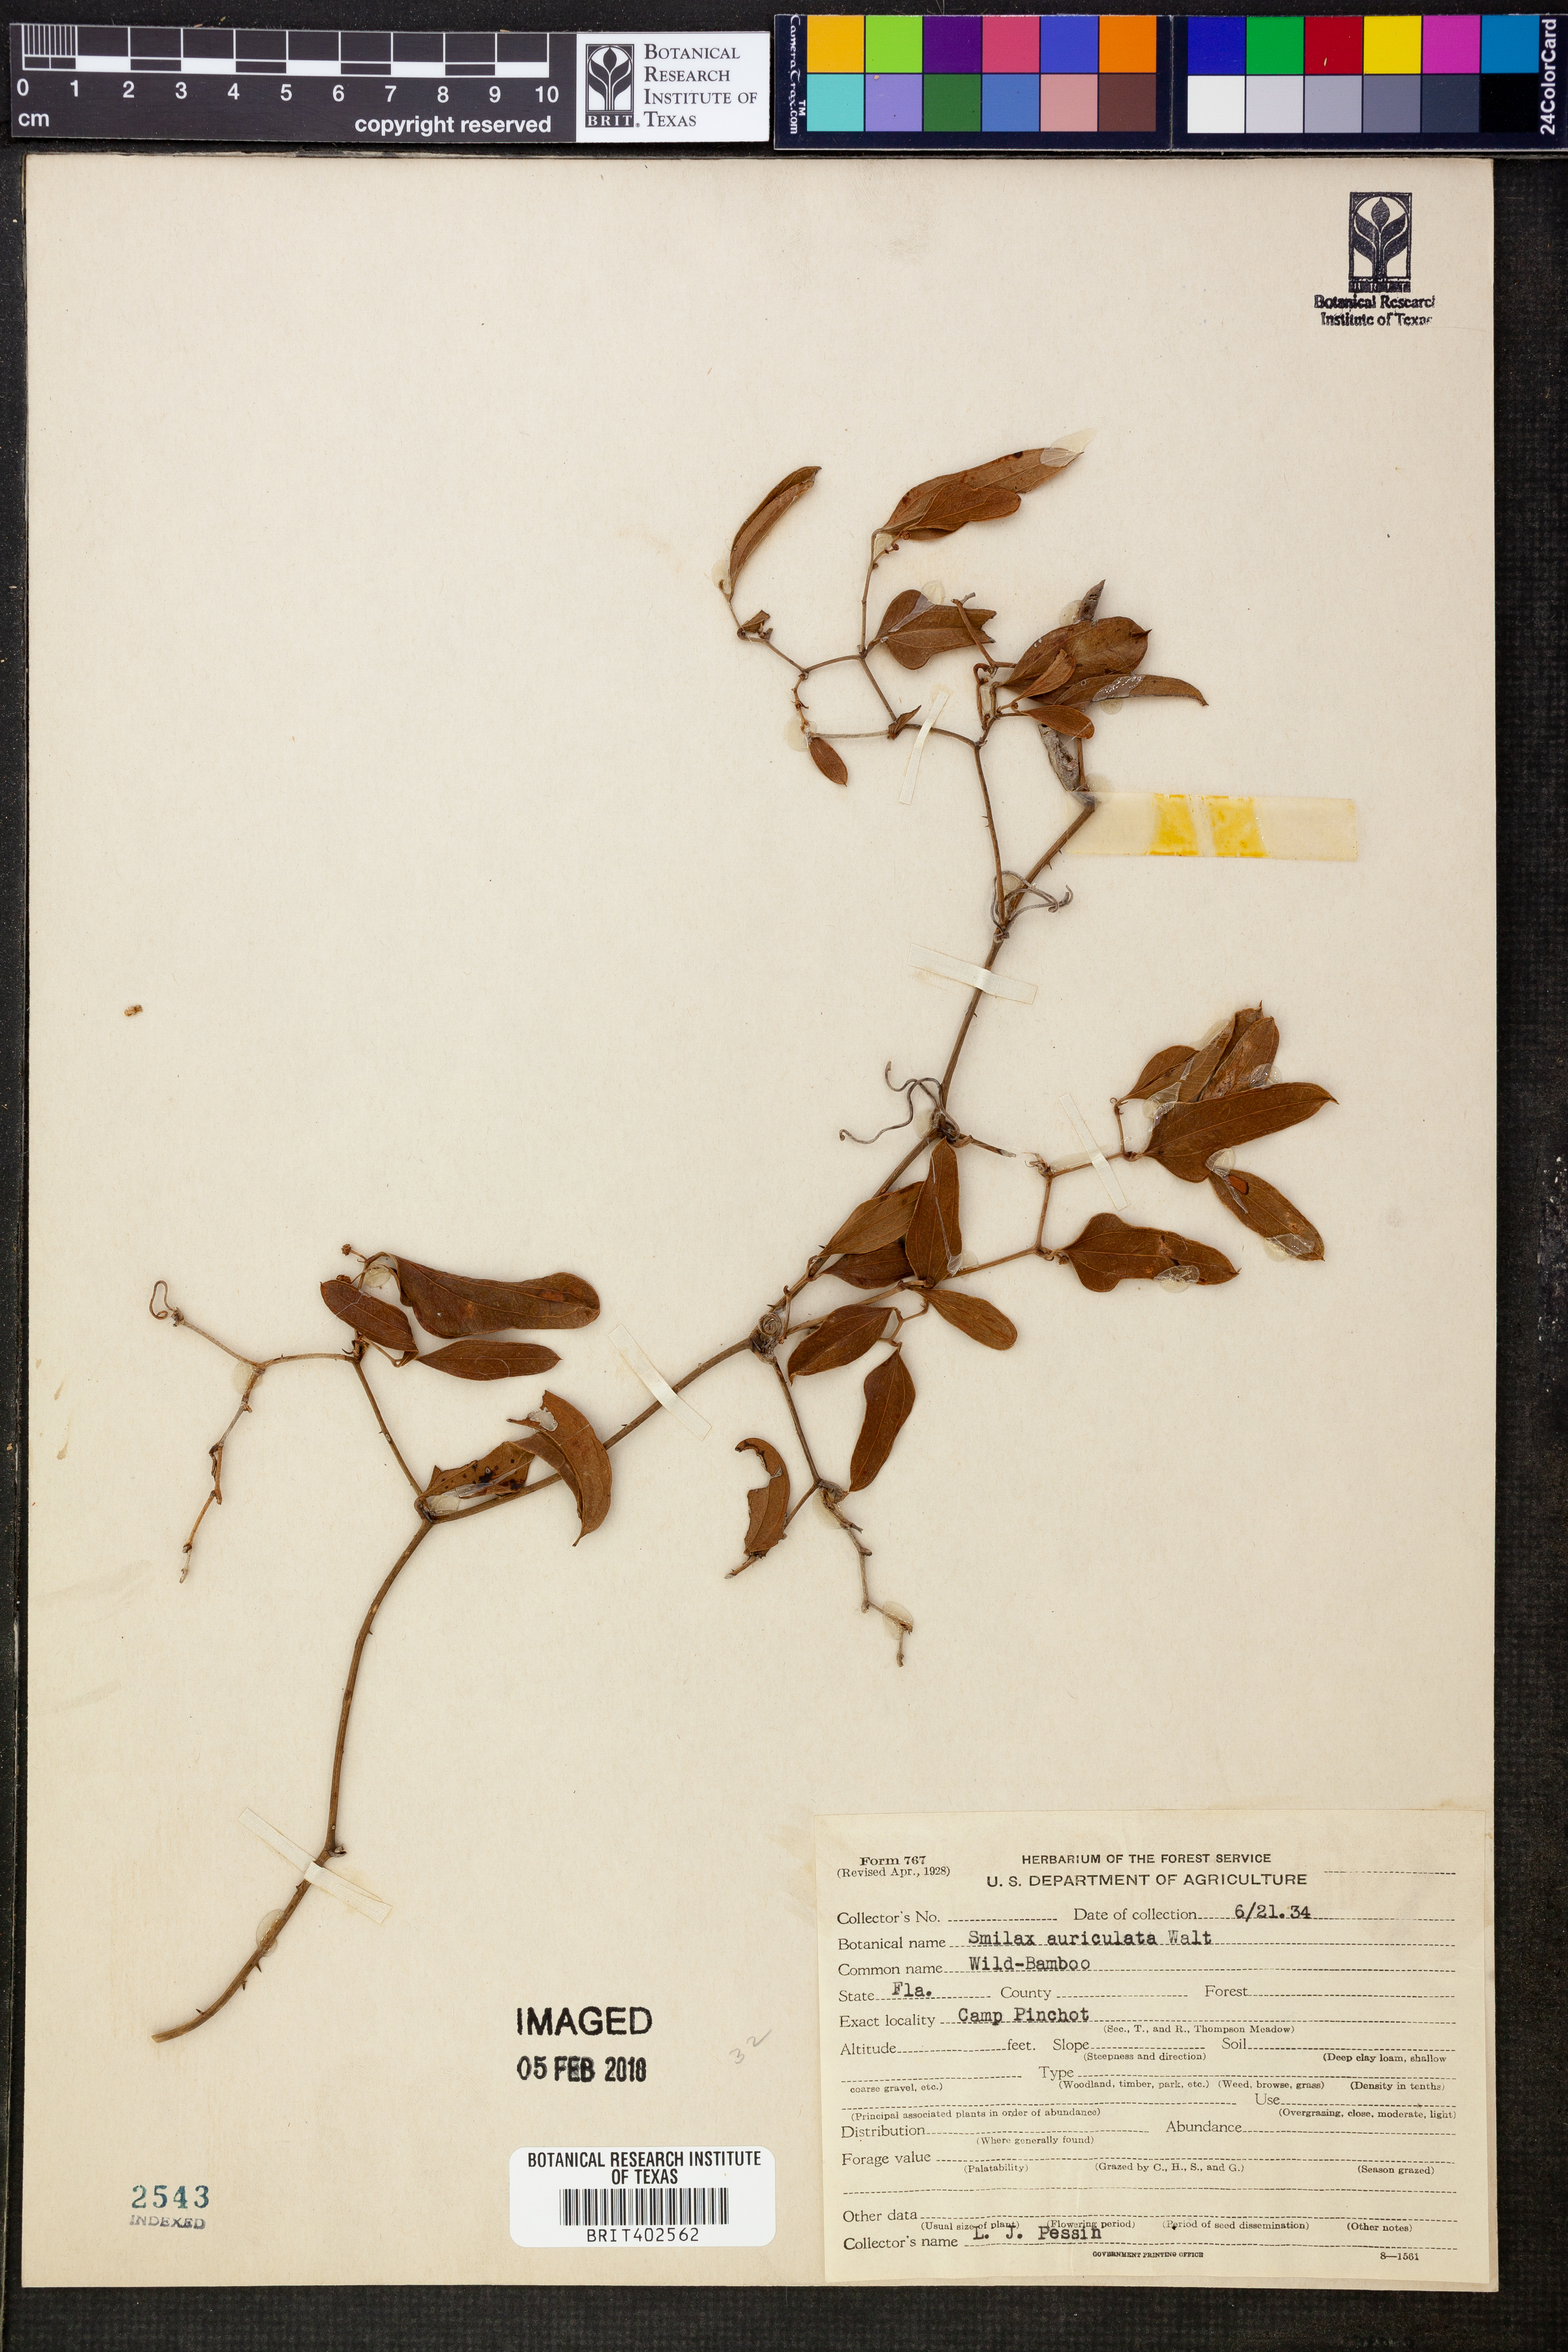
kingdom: Plantae
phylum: Tracheophyta
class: Liliopsida
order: Liliales
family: Smilacaceae
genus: Smilax
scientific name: Smilax auriculata
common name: Wild bamboo
